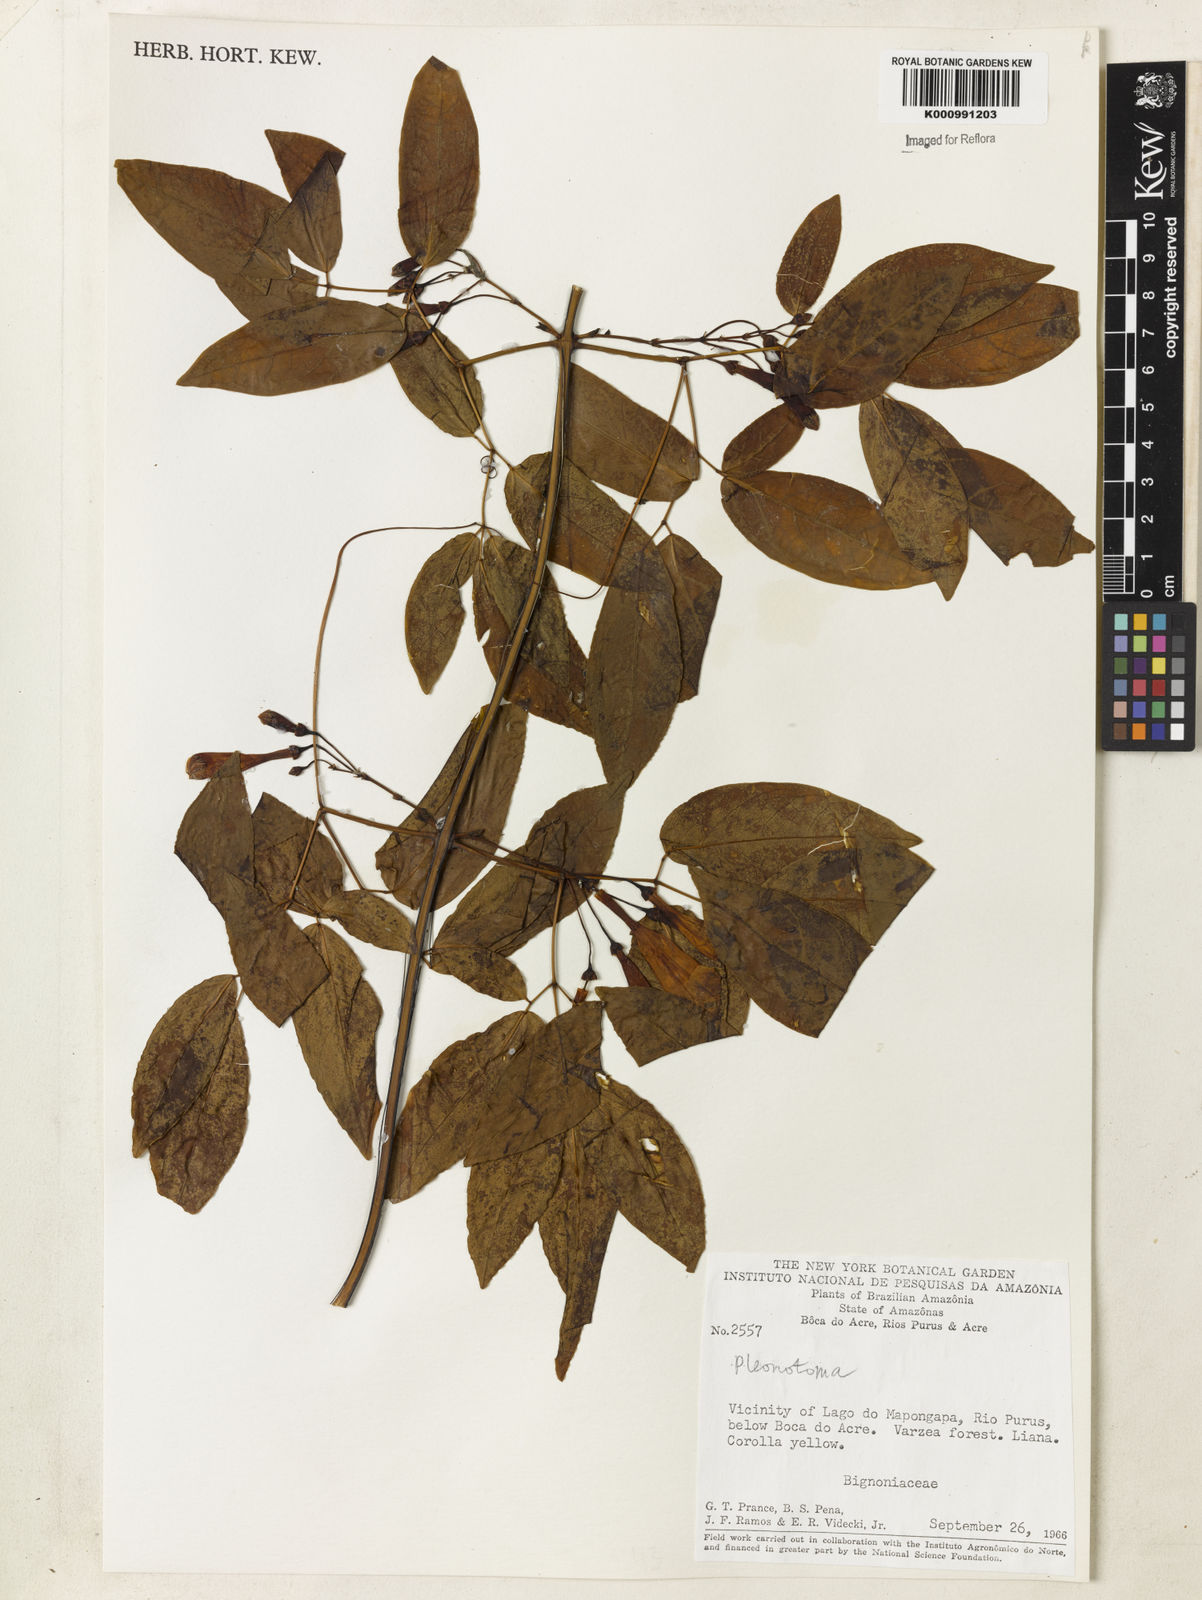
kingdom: Plantae
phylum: Tracheophyta
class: Magnoliopsida
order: Lamiales
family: Bignoniaceae
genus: Pleonotoma
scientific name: Pleonotoma
